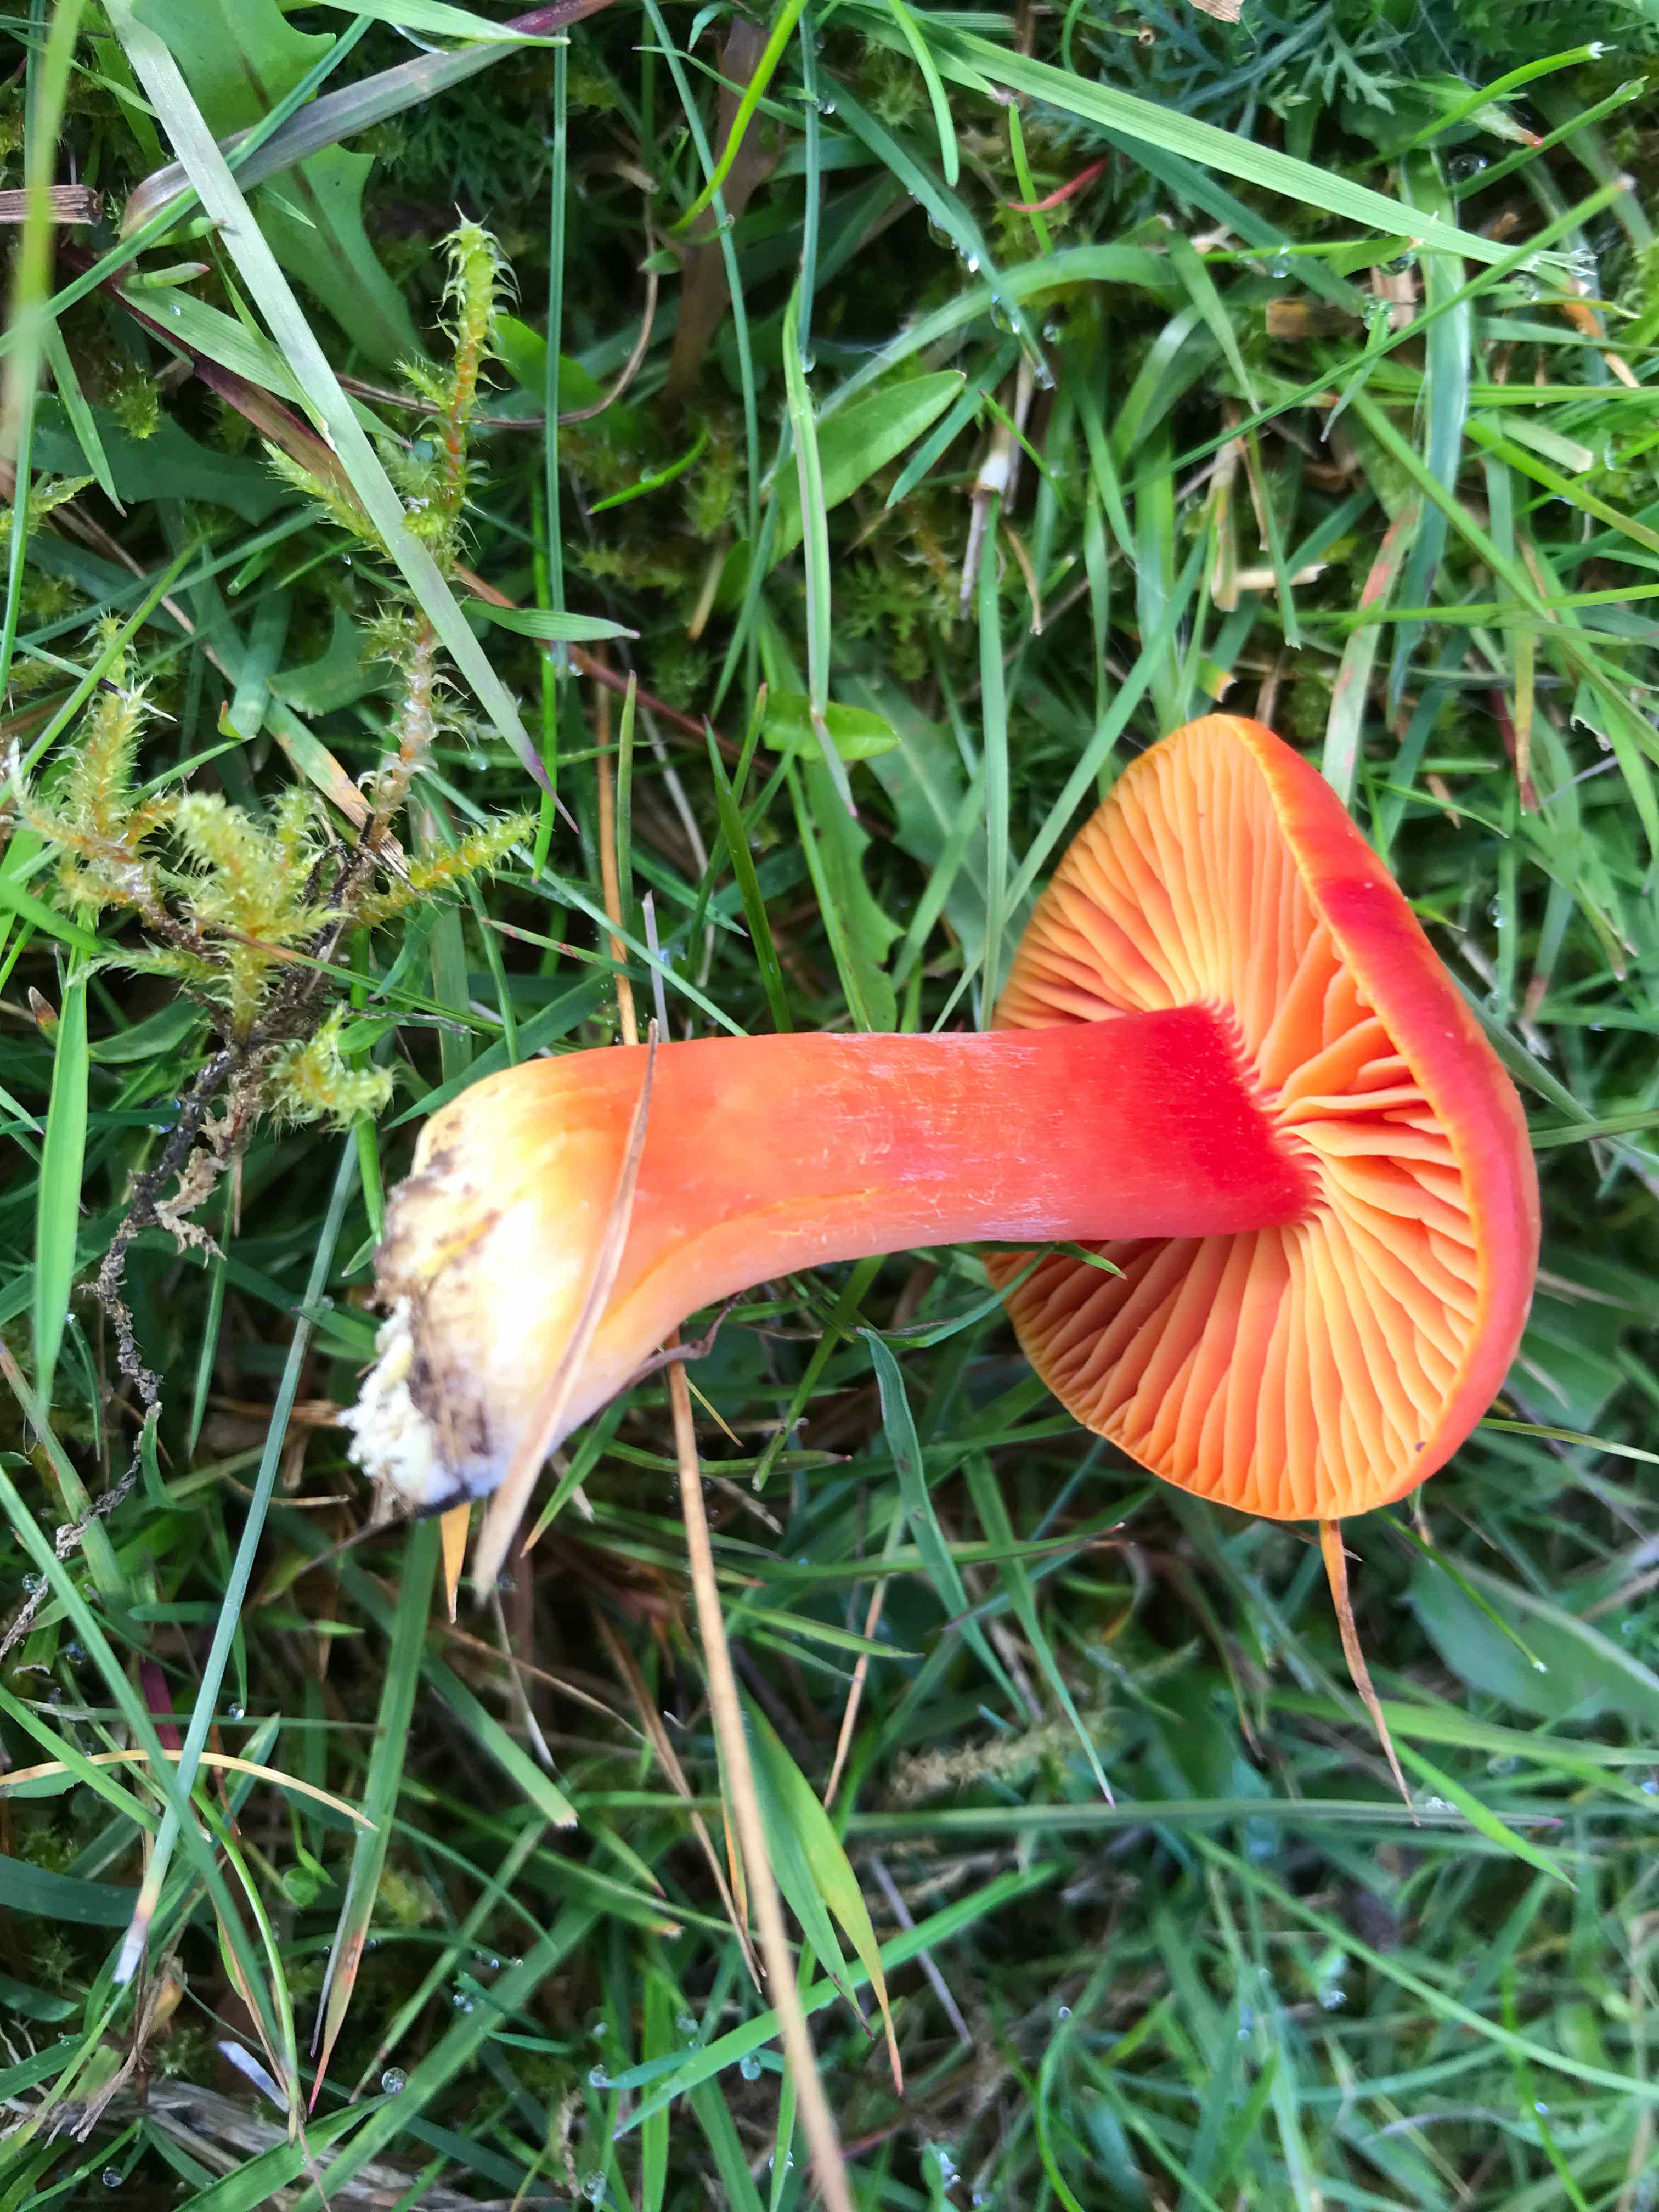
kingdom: Fungi
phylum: Basidiomycota
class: Agaricomycetes
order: Agaricales
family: Hygrophoraceae
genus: Hygrocybe
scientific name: Hygrocybe coccinea
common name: cinnober-vokshat
